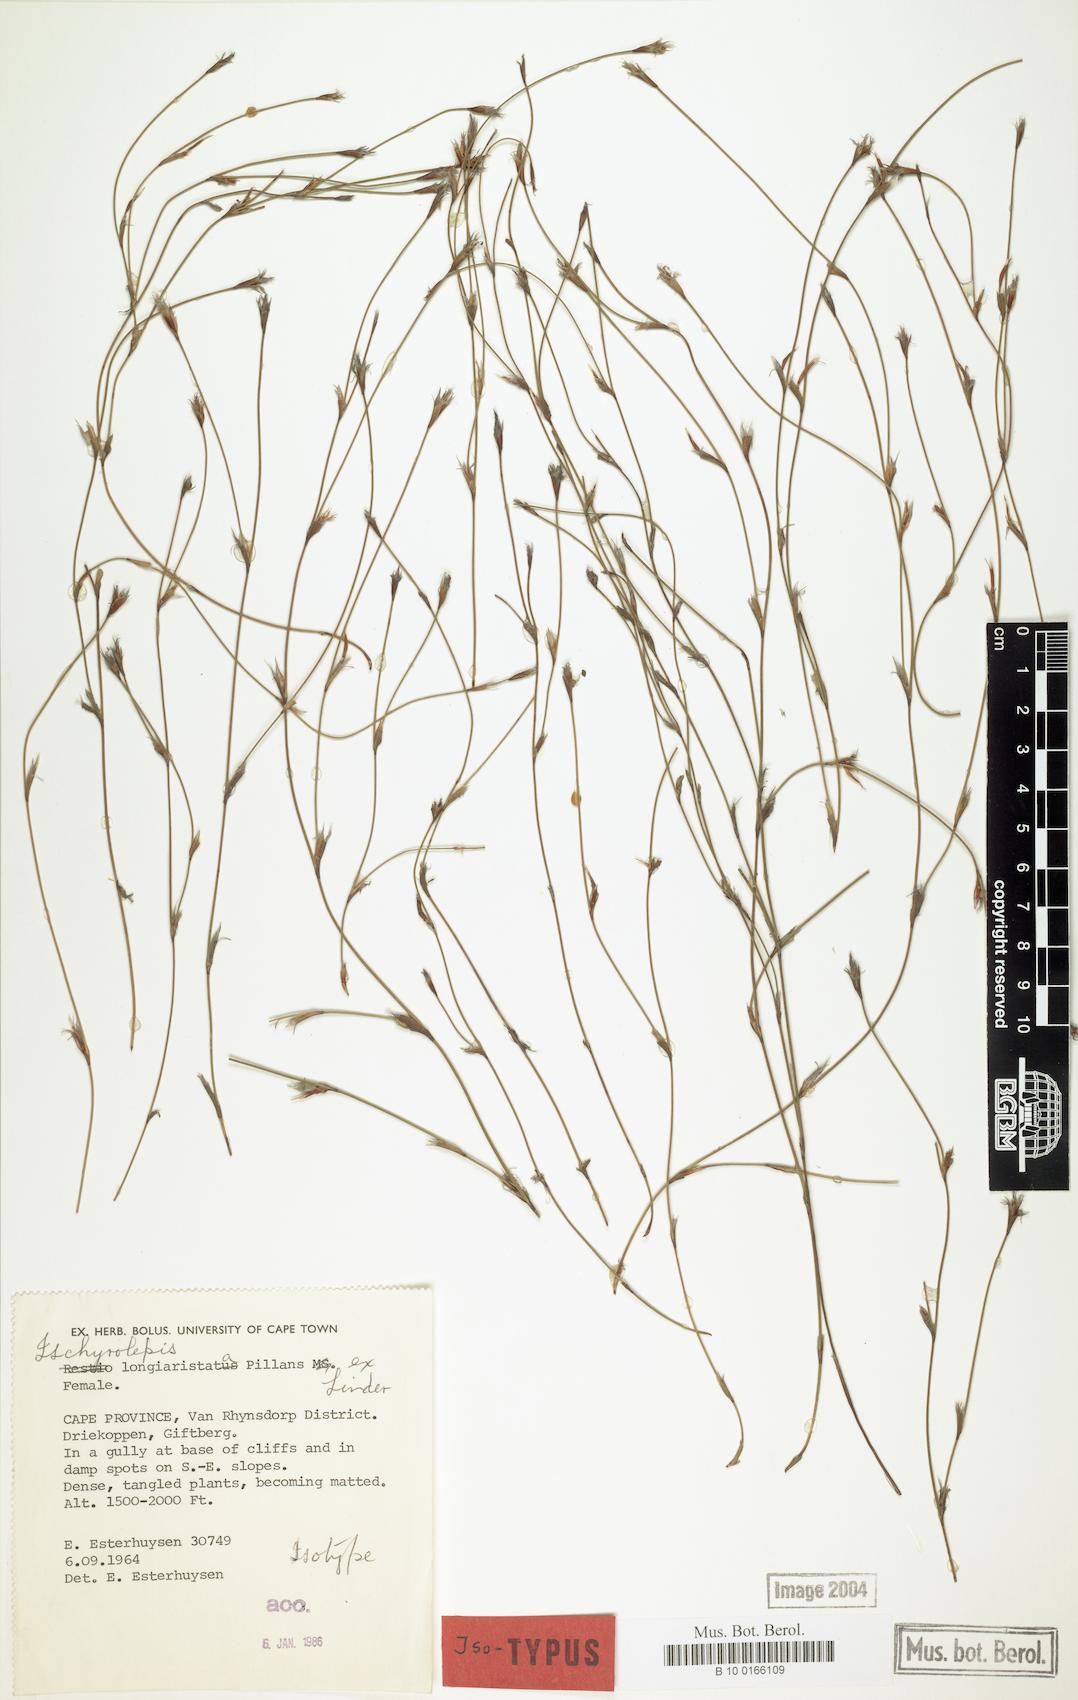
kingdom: Plantae
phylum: Tracheophyta
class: Liliopsida
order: Poales
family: Restionaceae
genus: Restio
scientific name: Restio longiaristatus
